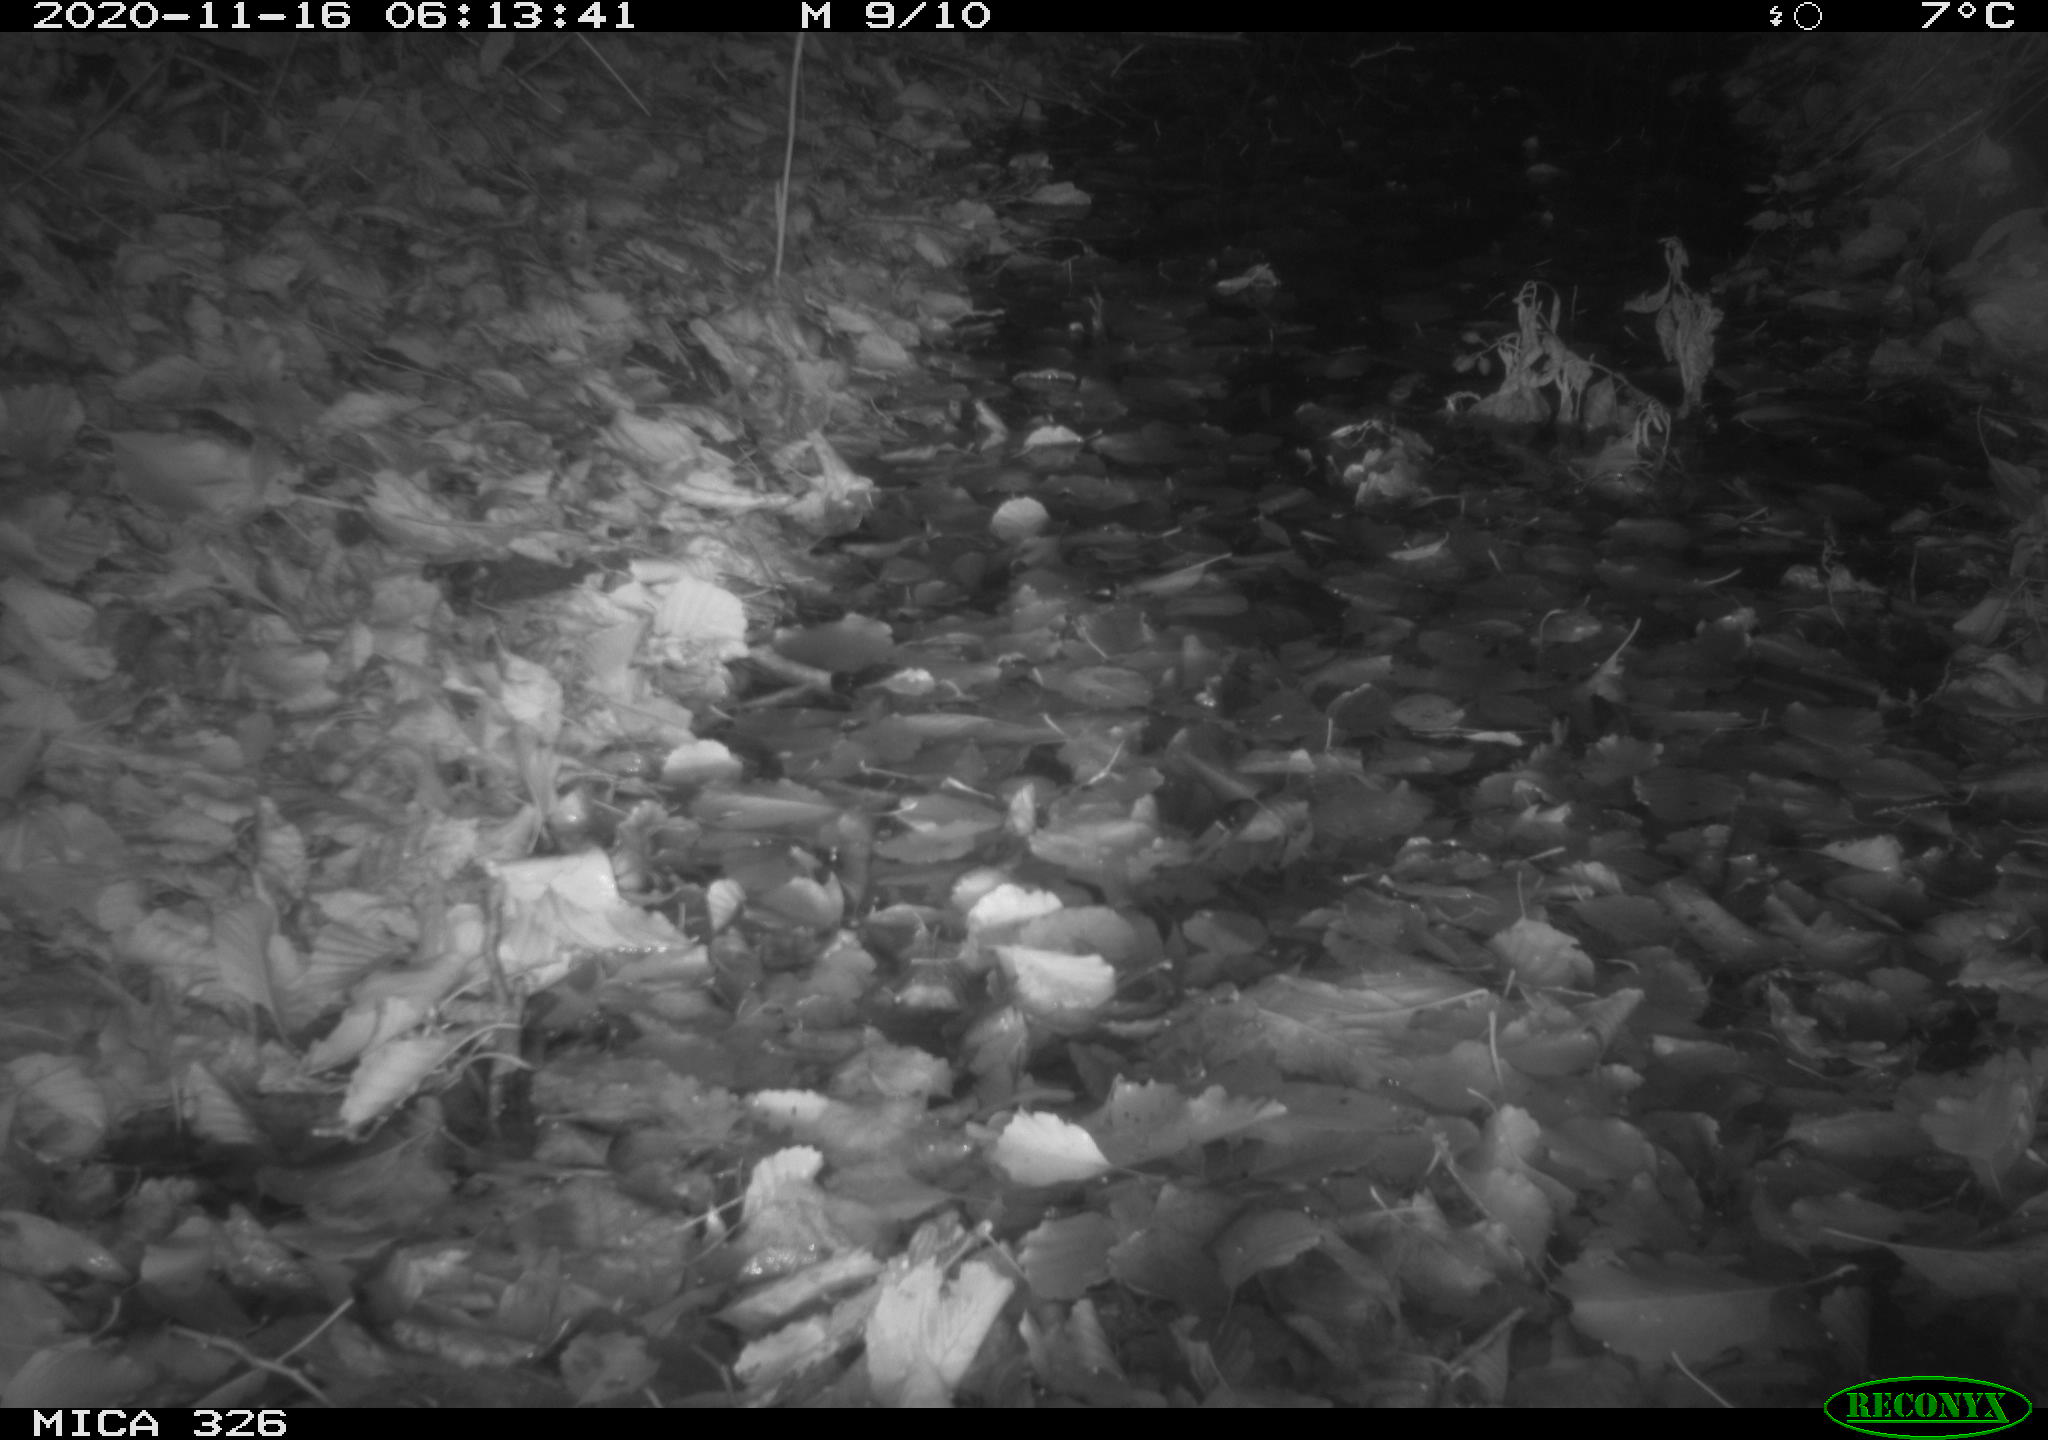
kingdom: Animalia
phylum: Chordata
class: Mammalia
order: Rodentia
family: Muridae
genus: Rattus
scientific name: Rattus norvegicus
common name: Brown rat
